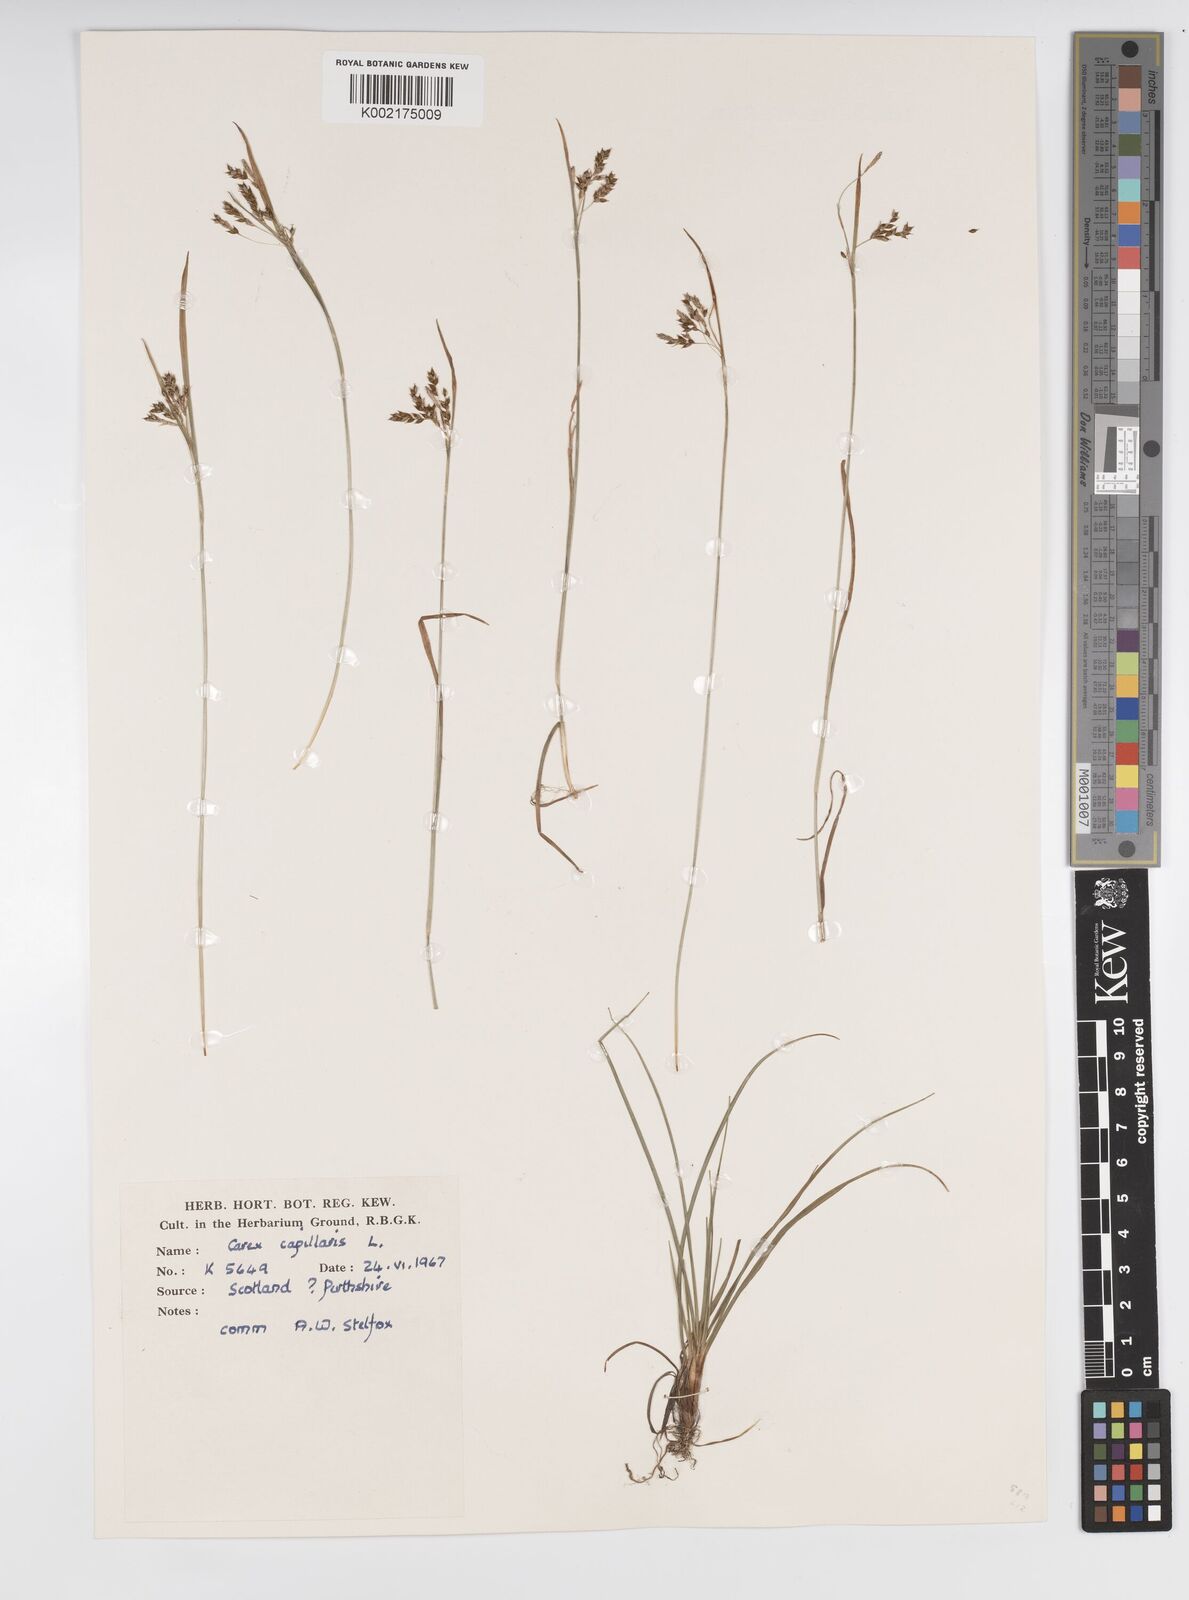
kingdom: Plantae
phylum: Tracheophyta
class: Liliopsida
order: Poales
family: Cyperaceae
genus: Carex
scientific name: Carex capillaris
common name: Hair sedge
